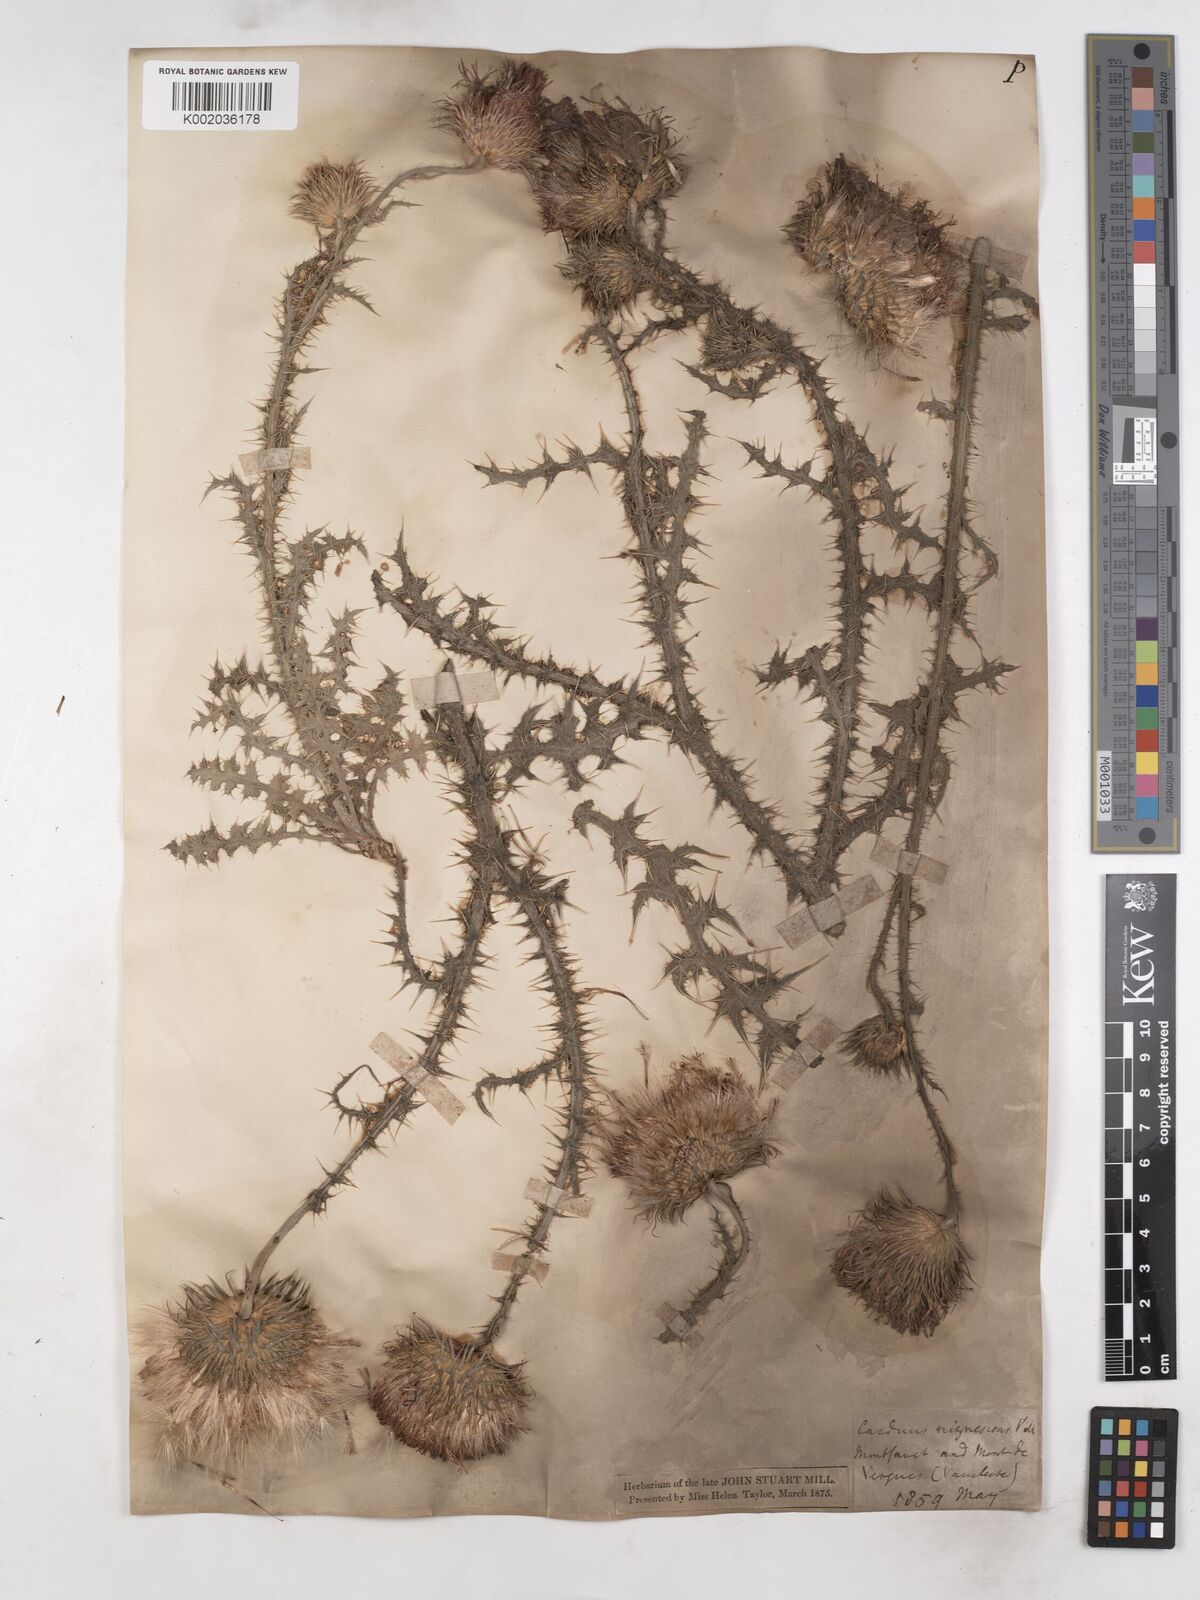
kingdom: Plantae
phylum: Tracheophyta
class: Magnoliopsida
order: Asterales
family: Asteraceae
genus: Carduus
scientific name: Carduus nigrescens
